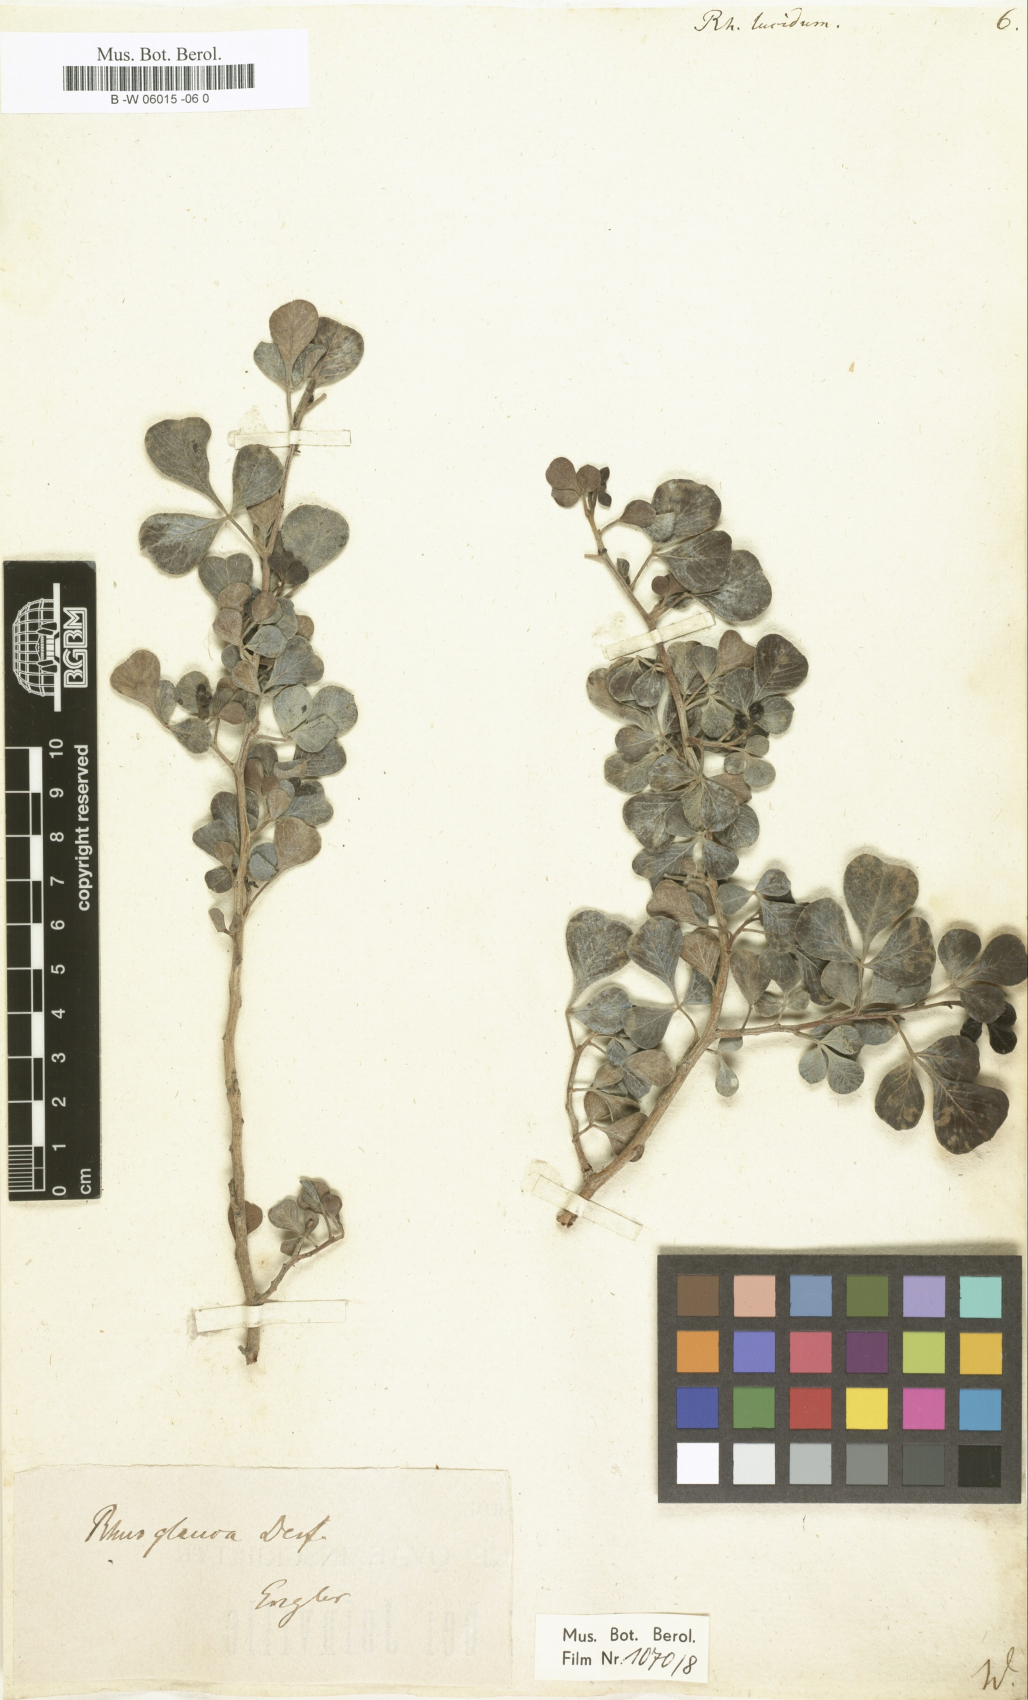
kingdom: Plantae
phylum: Tracheophyta
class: Magnoliopsida
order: Sapindales
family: Anacardiaceae
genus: Searsia
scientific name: Searsia
